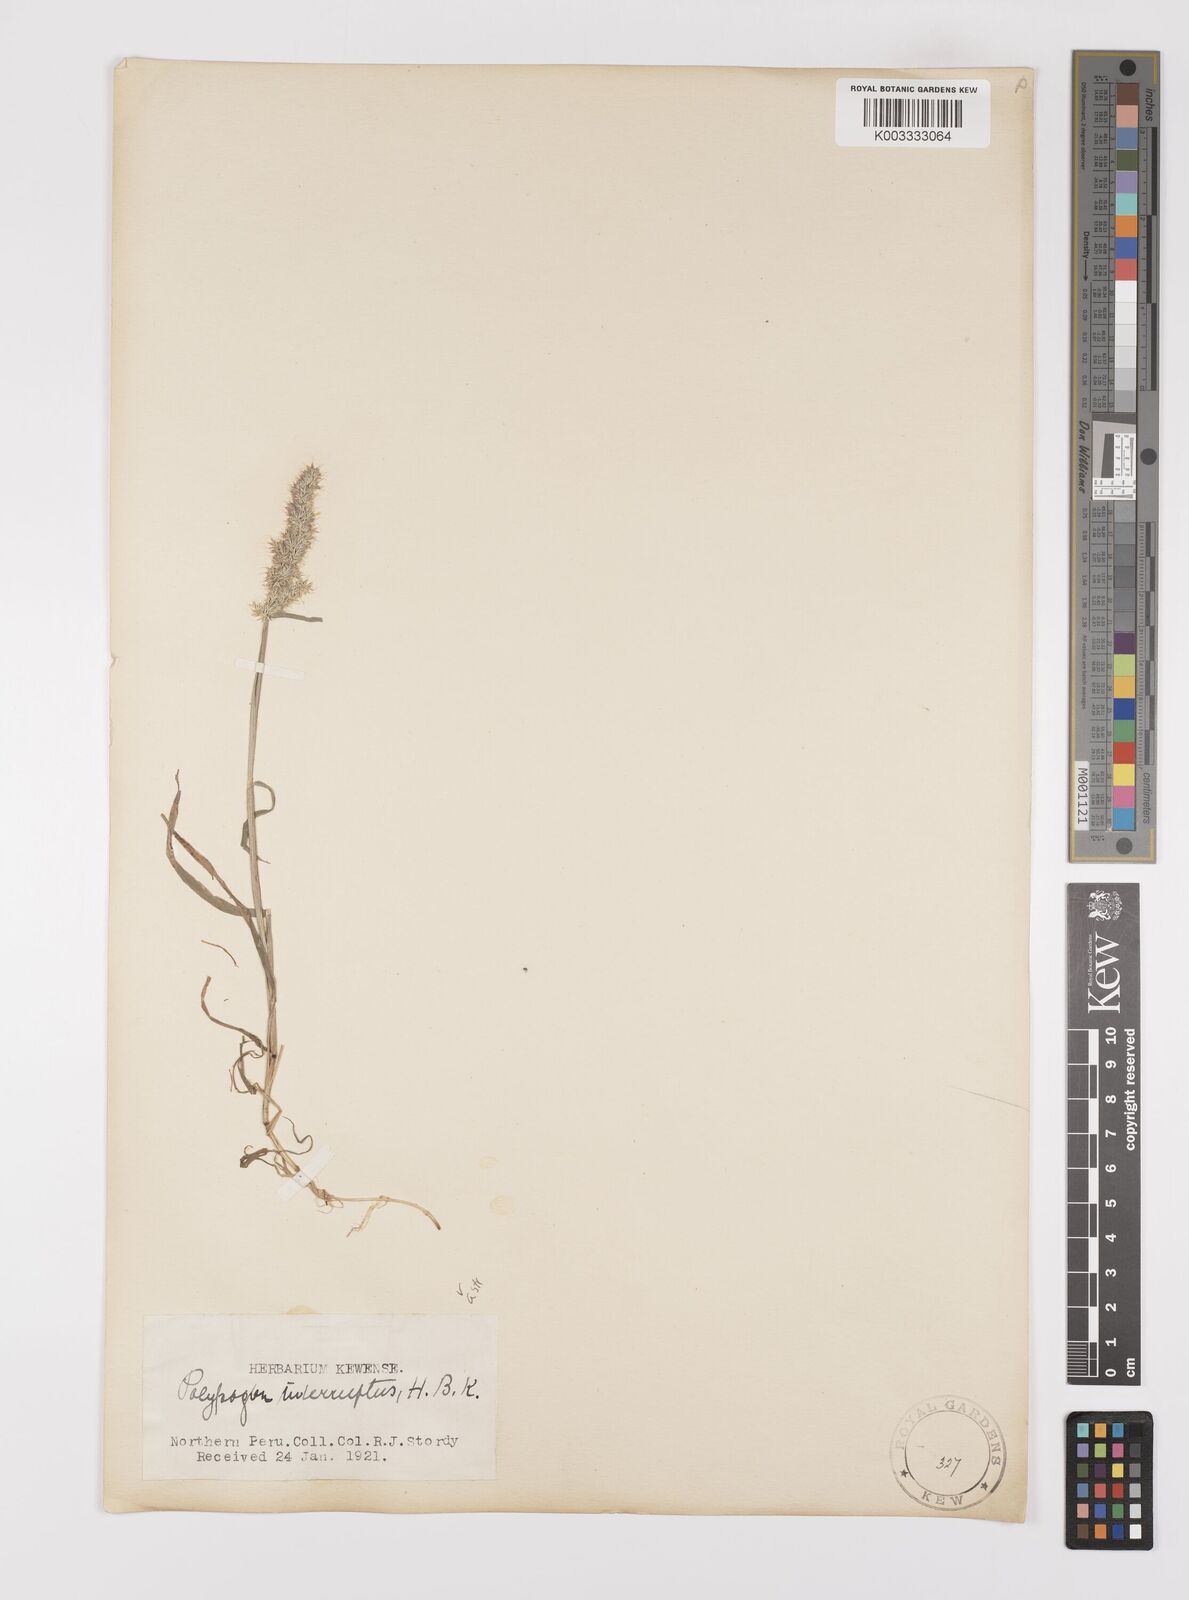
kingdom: Plantae
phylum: Tracheophyta
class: Liliopsida
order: Poales
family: Poaceae
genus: Polypogon
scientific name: Polypogon interruptus
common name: Ditch polypogon
